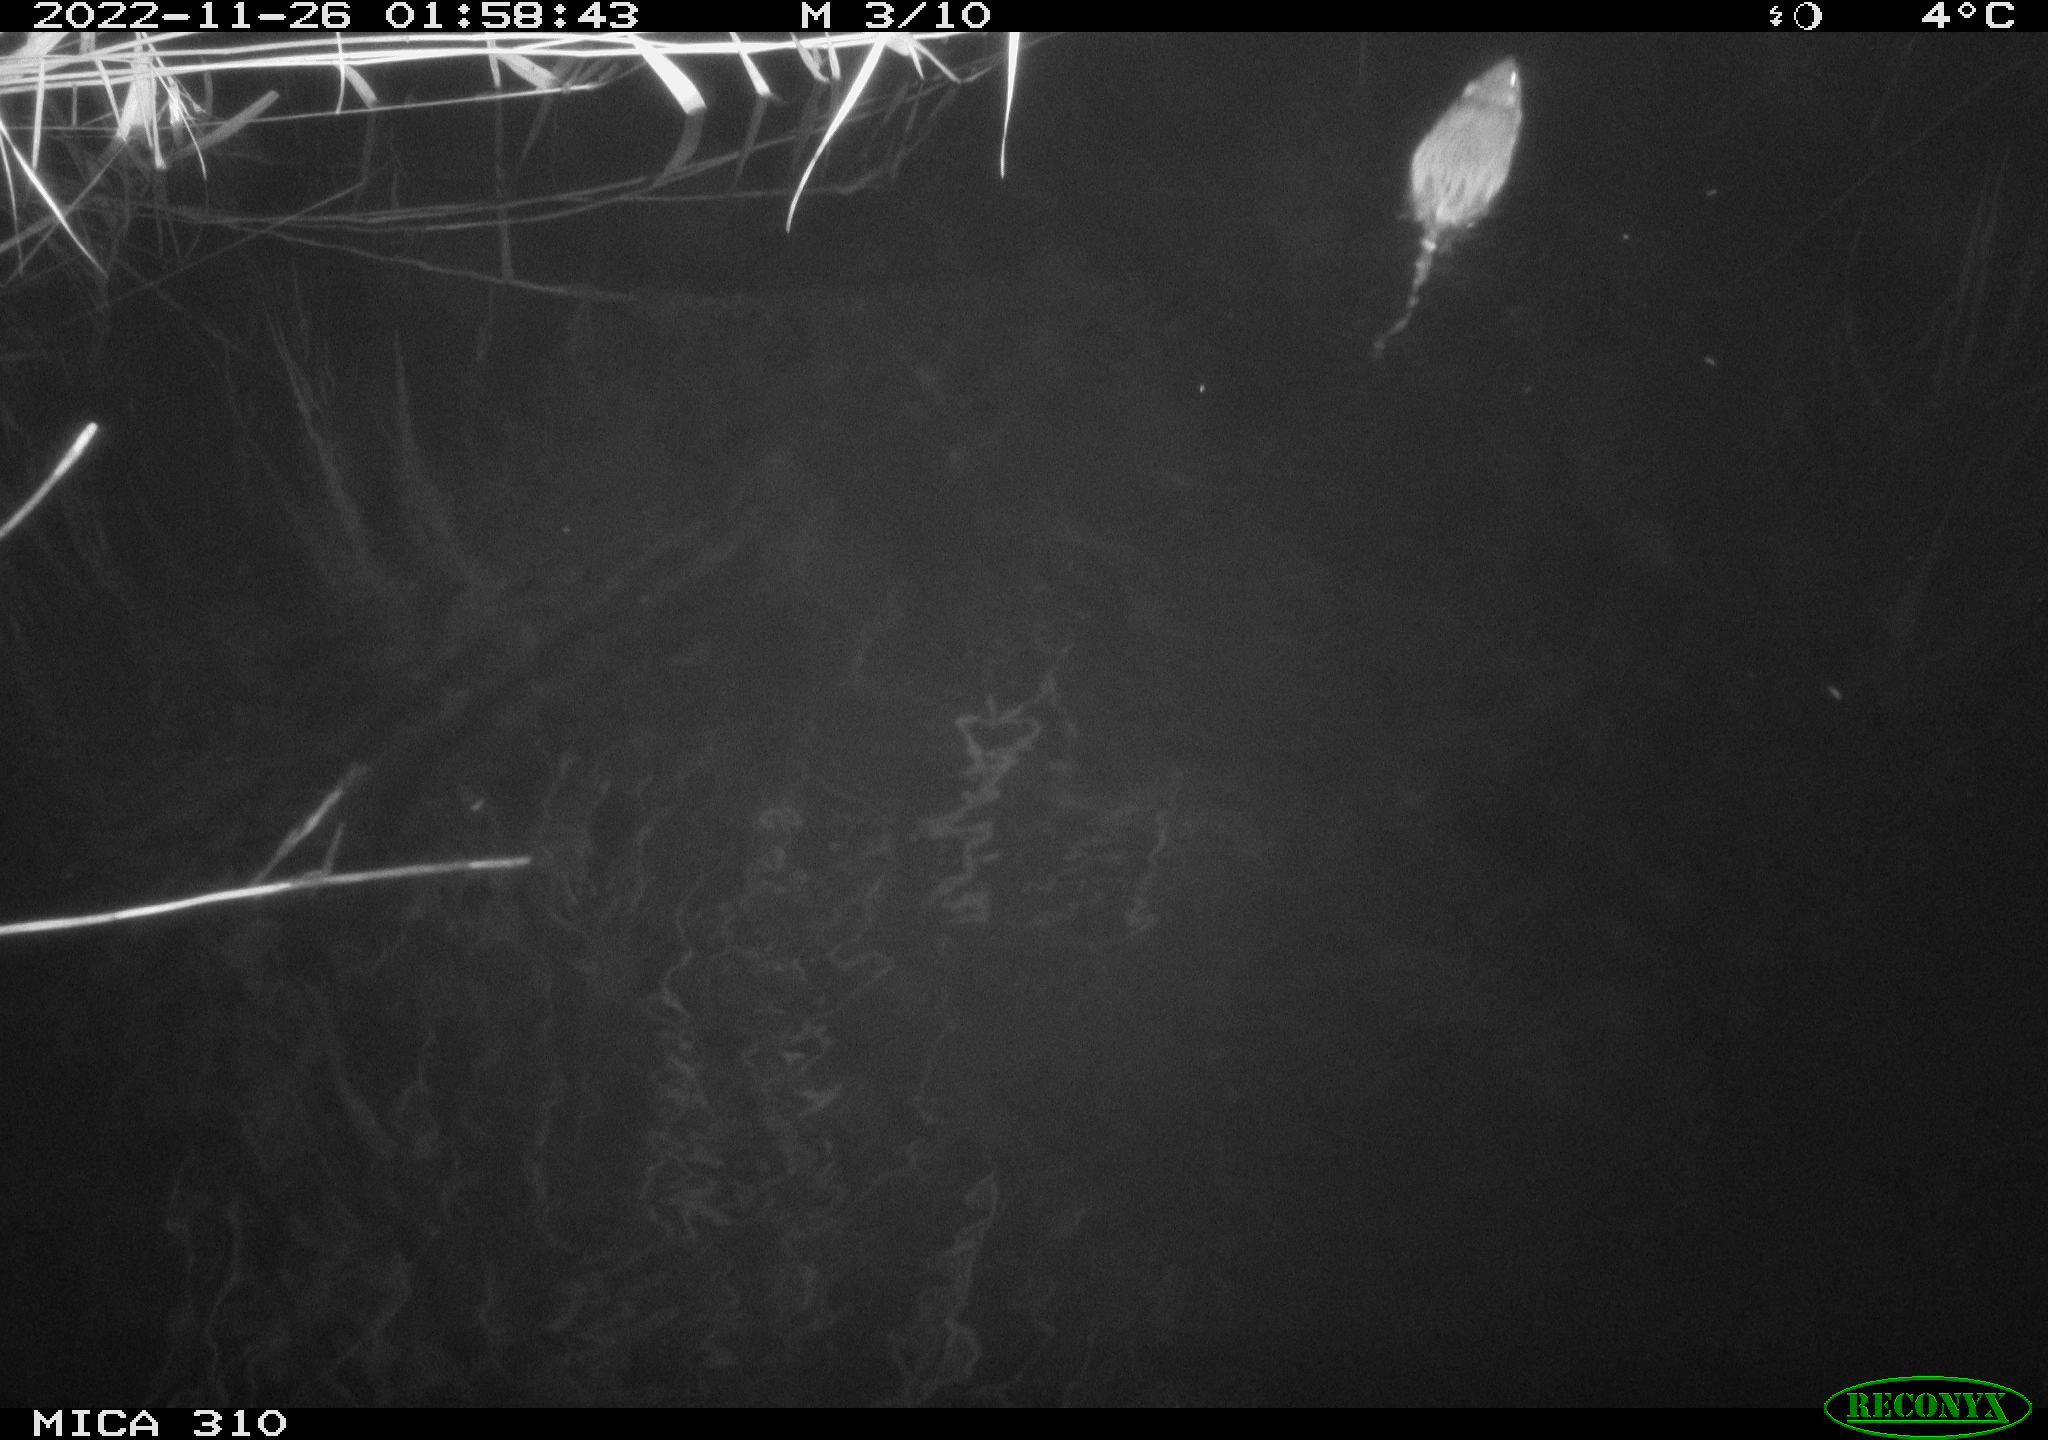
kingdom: Animalia
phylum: Chordata
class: Mammalia
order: Rodentia
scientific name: Rodentia
